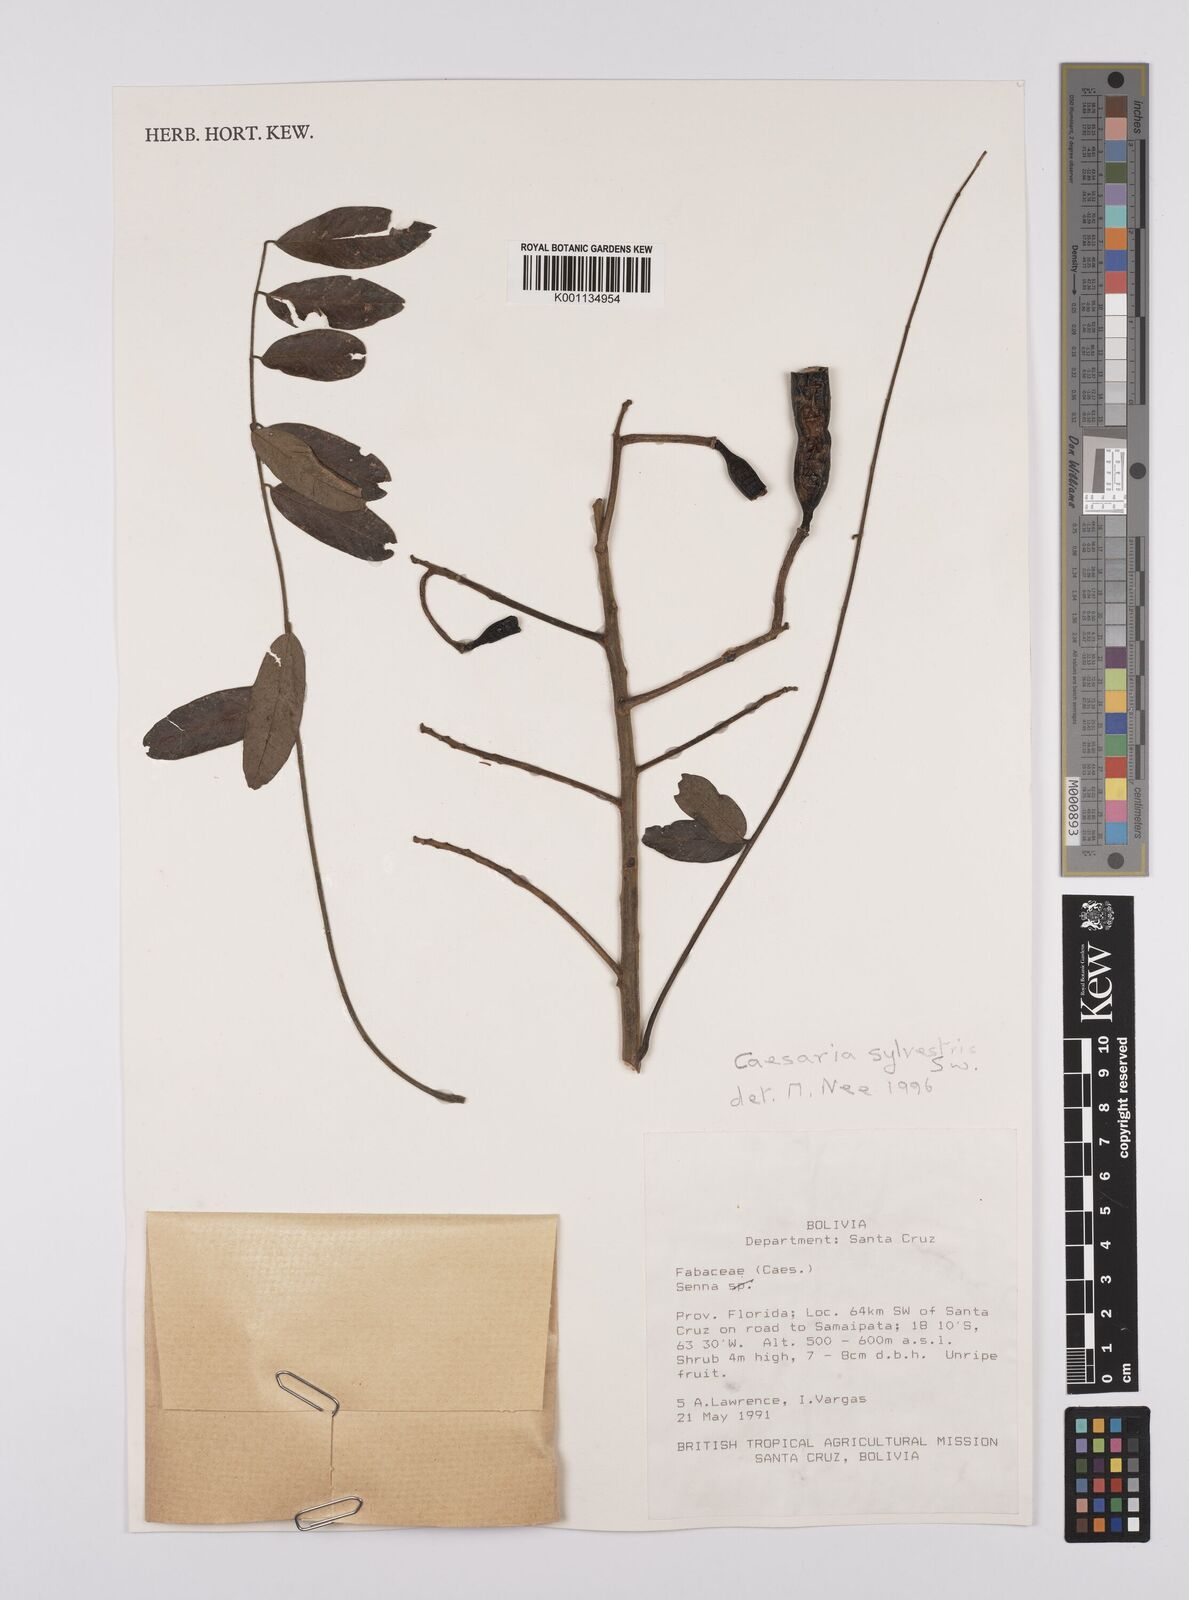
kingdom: Plantae
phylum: Tracheophyta
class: Magnoliopsida
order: Fabales
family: Fabaceae
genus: Senna
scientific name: Senna
